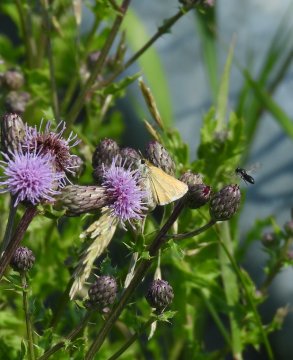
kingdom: Animalia
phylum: Arthropoda
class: Insecta
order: Lepidoptera
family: Hesperiidae
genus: Oarisma
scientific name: Oarisma garita
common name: Garita Skipperling
